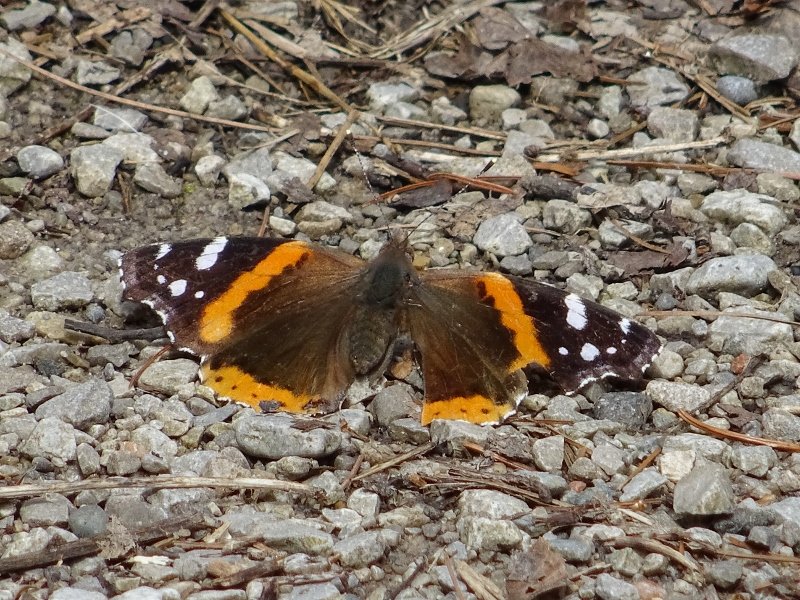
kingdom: Animalia
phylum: Arthropoda
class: Insecta
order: Lepidoptera
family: Nymphalidae
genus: Vanessa
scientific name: Vanessa atalanta
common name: Red Admiral
